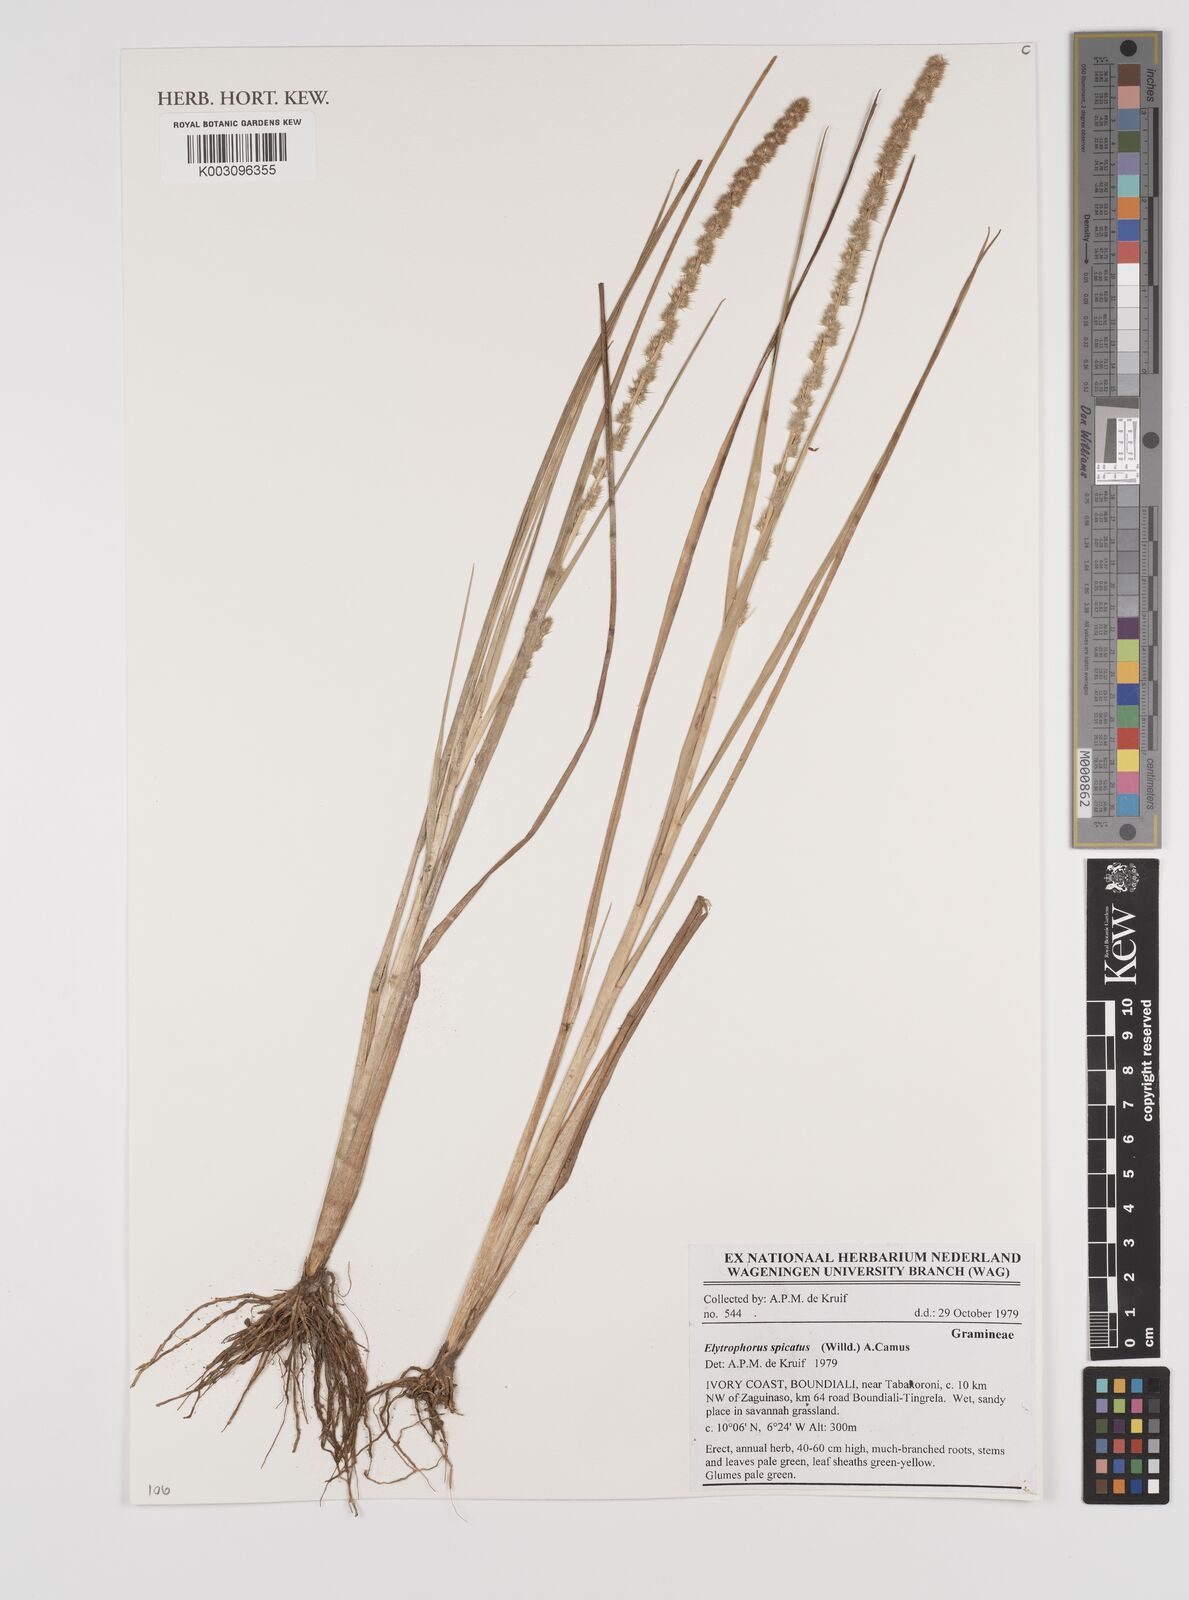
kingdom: Plantae
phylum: Tracheophyta
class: Liliopsida
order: Poales
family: Poaceae
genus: Elytrophorus
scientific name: Elytrophorus spicatus
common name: Spike grass
